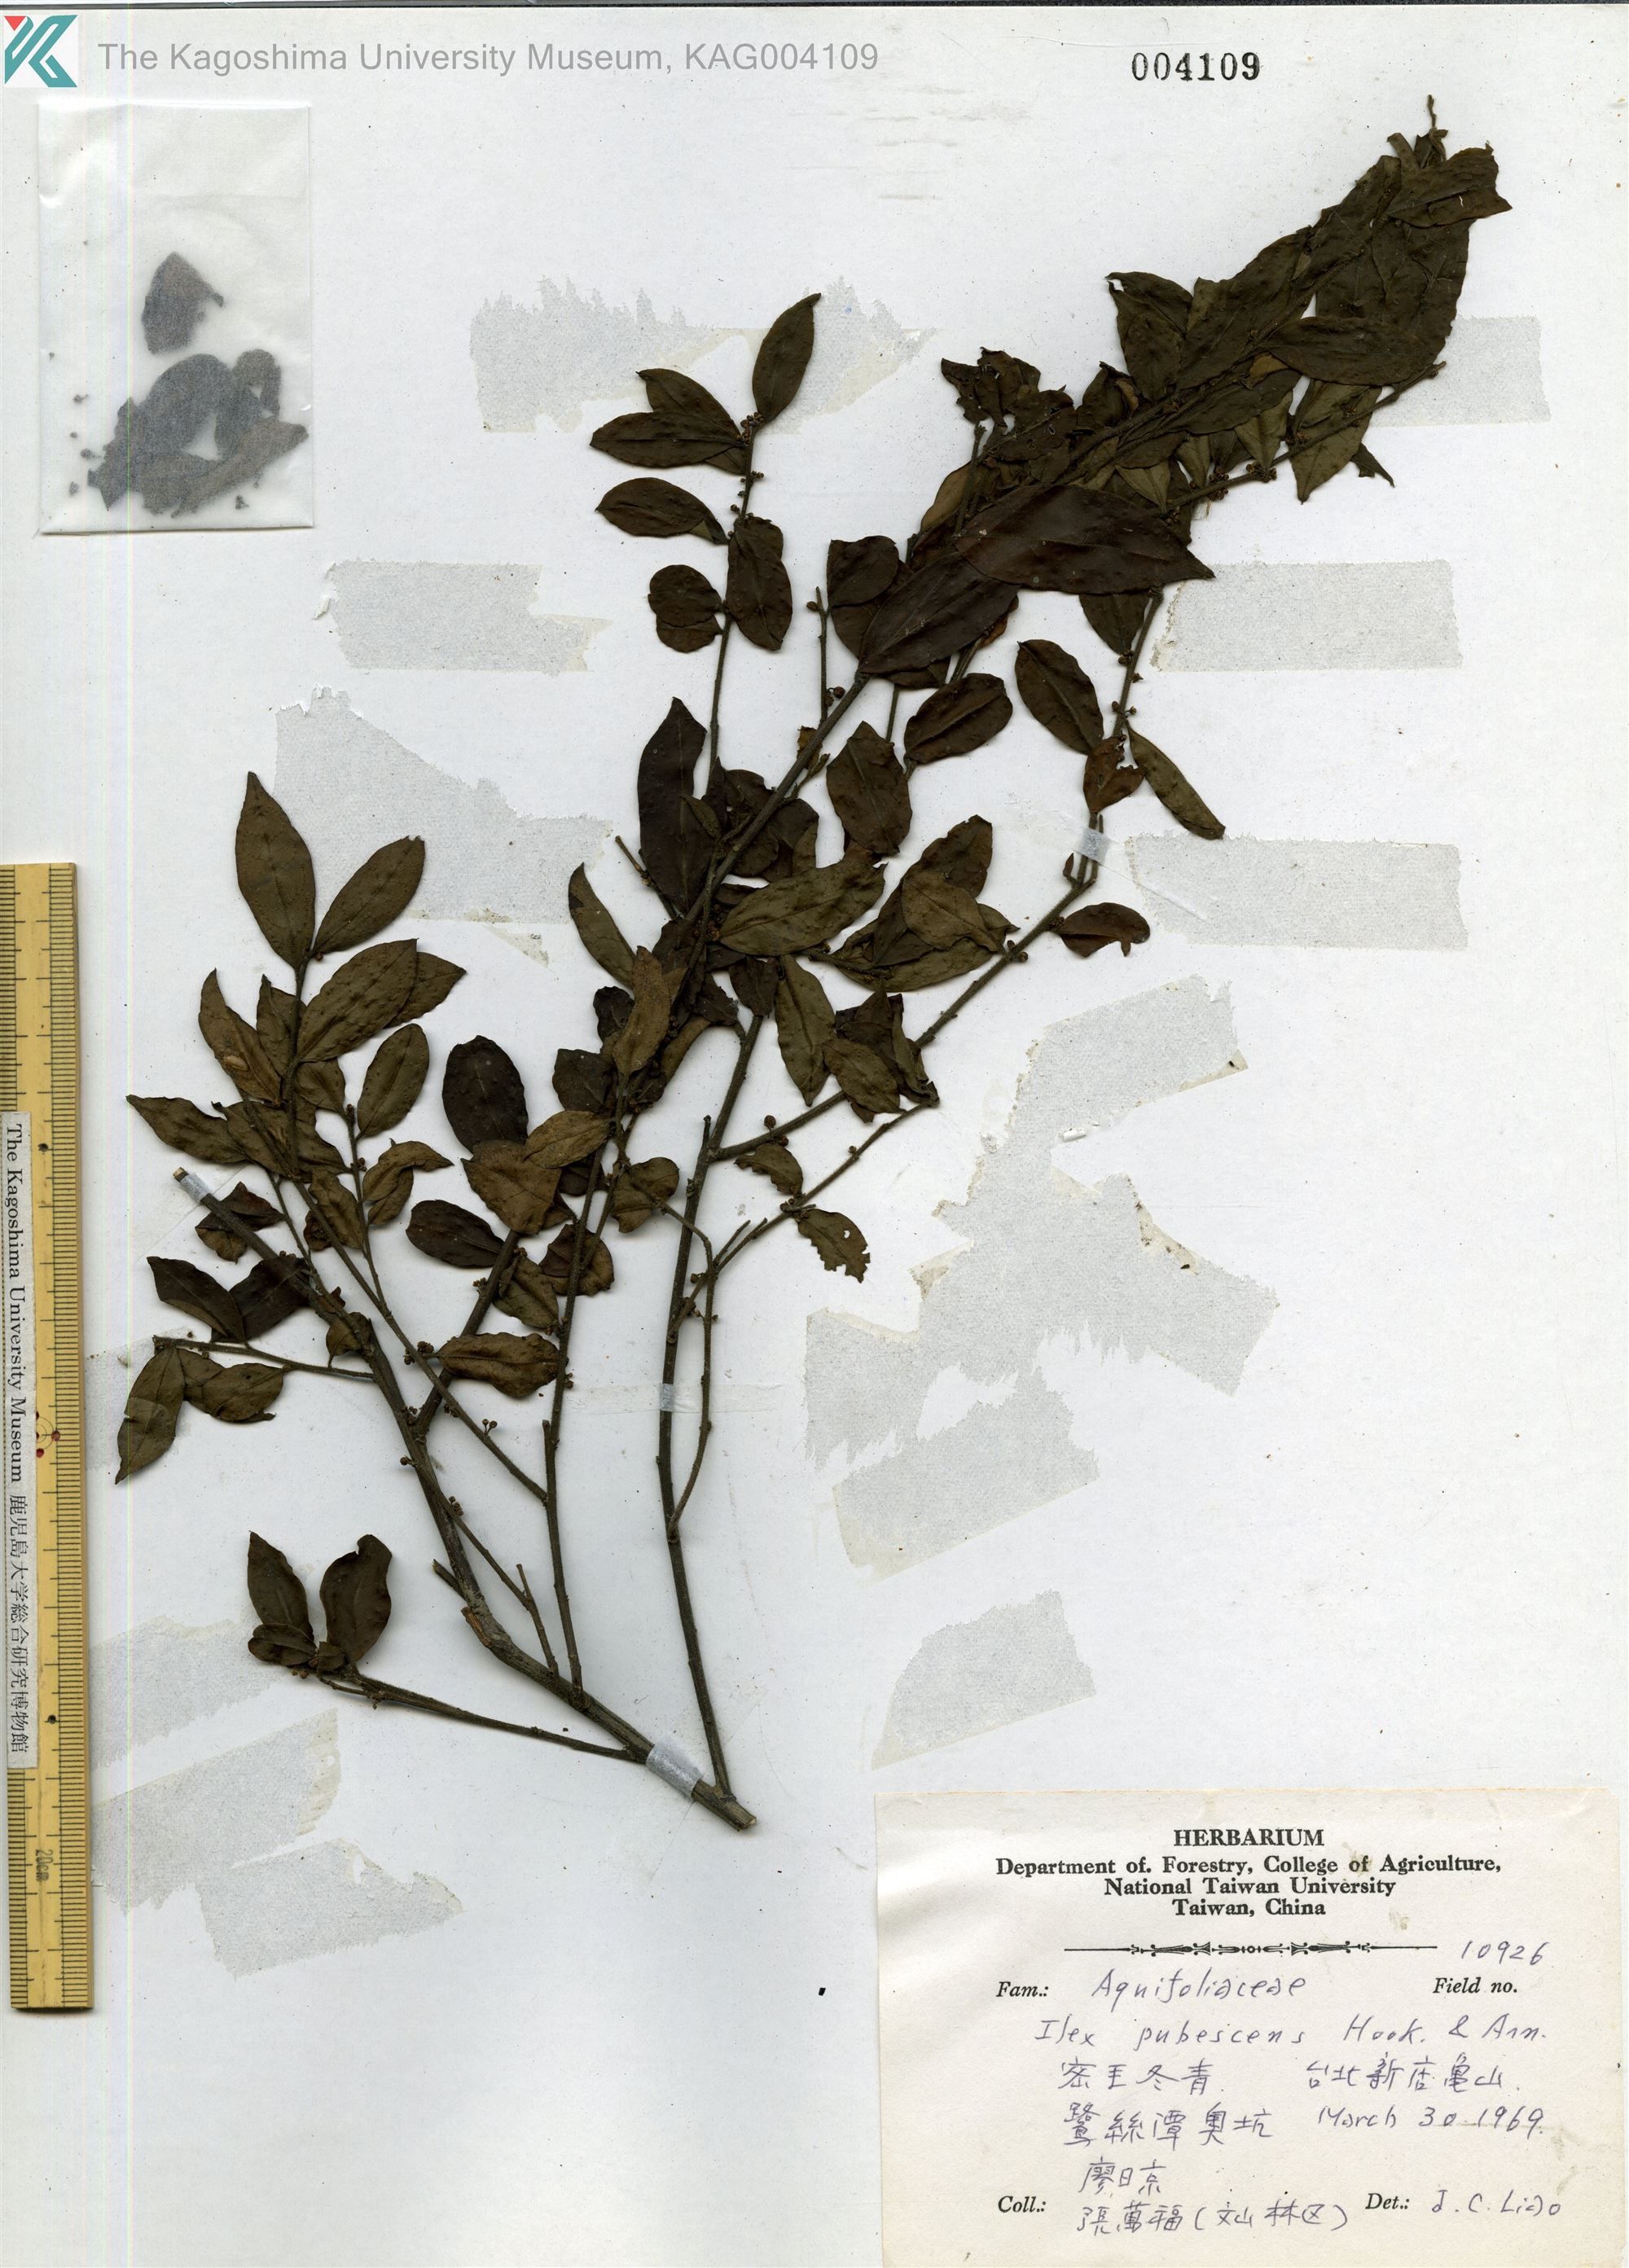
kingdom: Plantae
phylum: Tracheophyta
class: Magnoliopsida
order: Aquifoliales
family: Aquifoliaceae
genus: Ilex
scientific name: Ilex pubescens
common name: Pubescent holly
